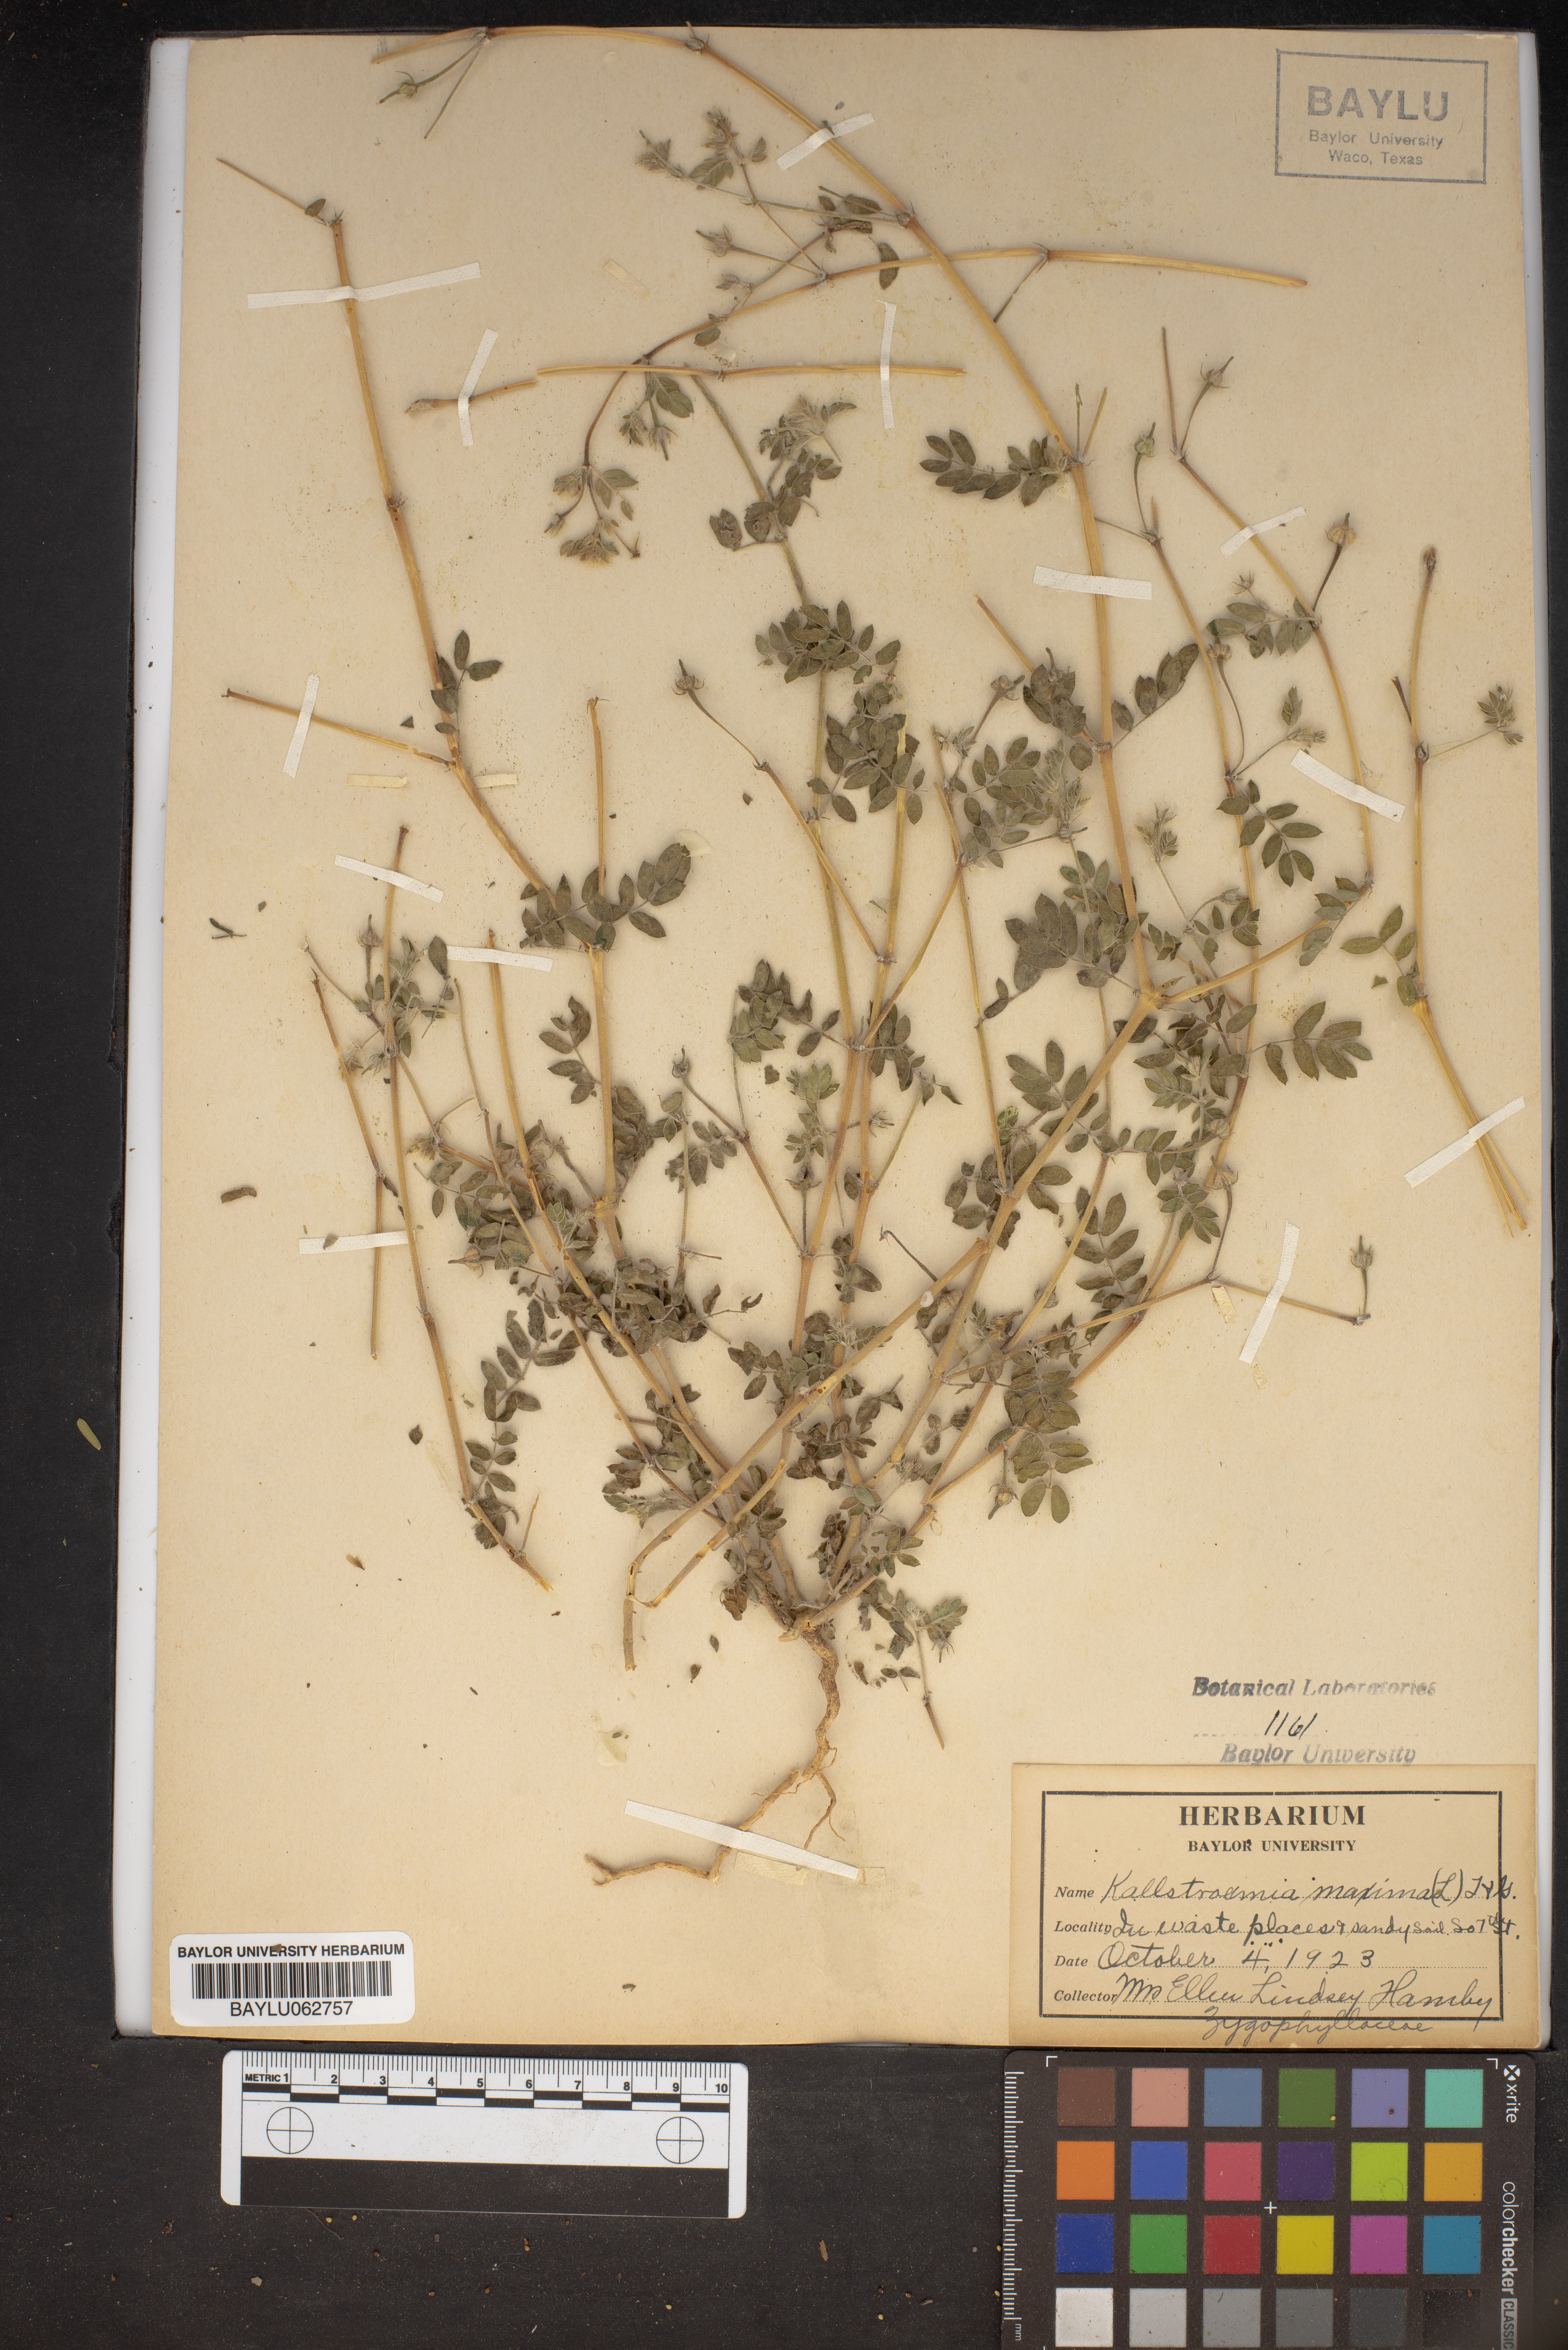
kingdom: Plantae
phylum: Tracheophyta
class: Magnoliopsida
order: Zygophyllales
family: Zygophyllaceae
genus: Kallstroemia
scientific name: Kallstroemia maxima
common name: Big caltropa
